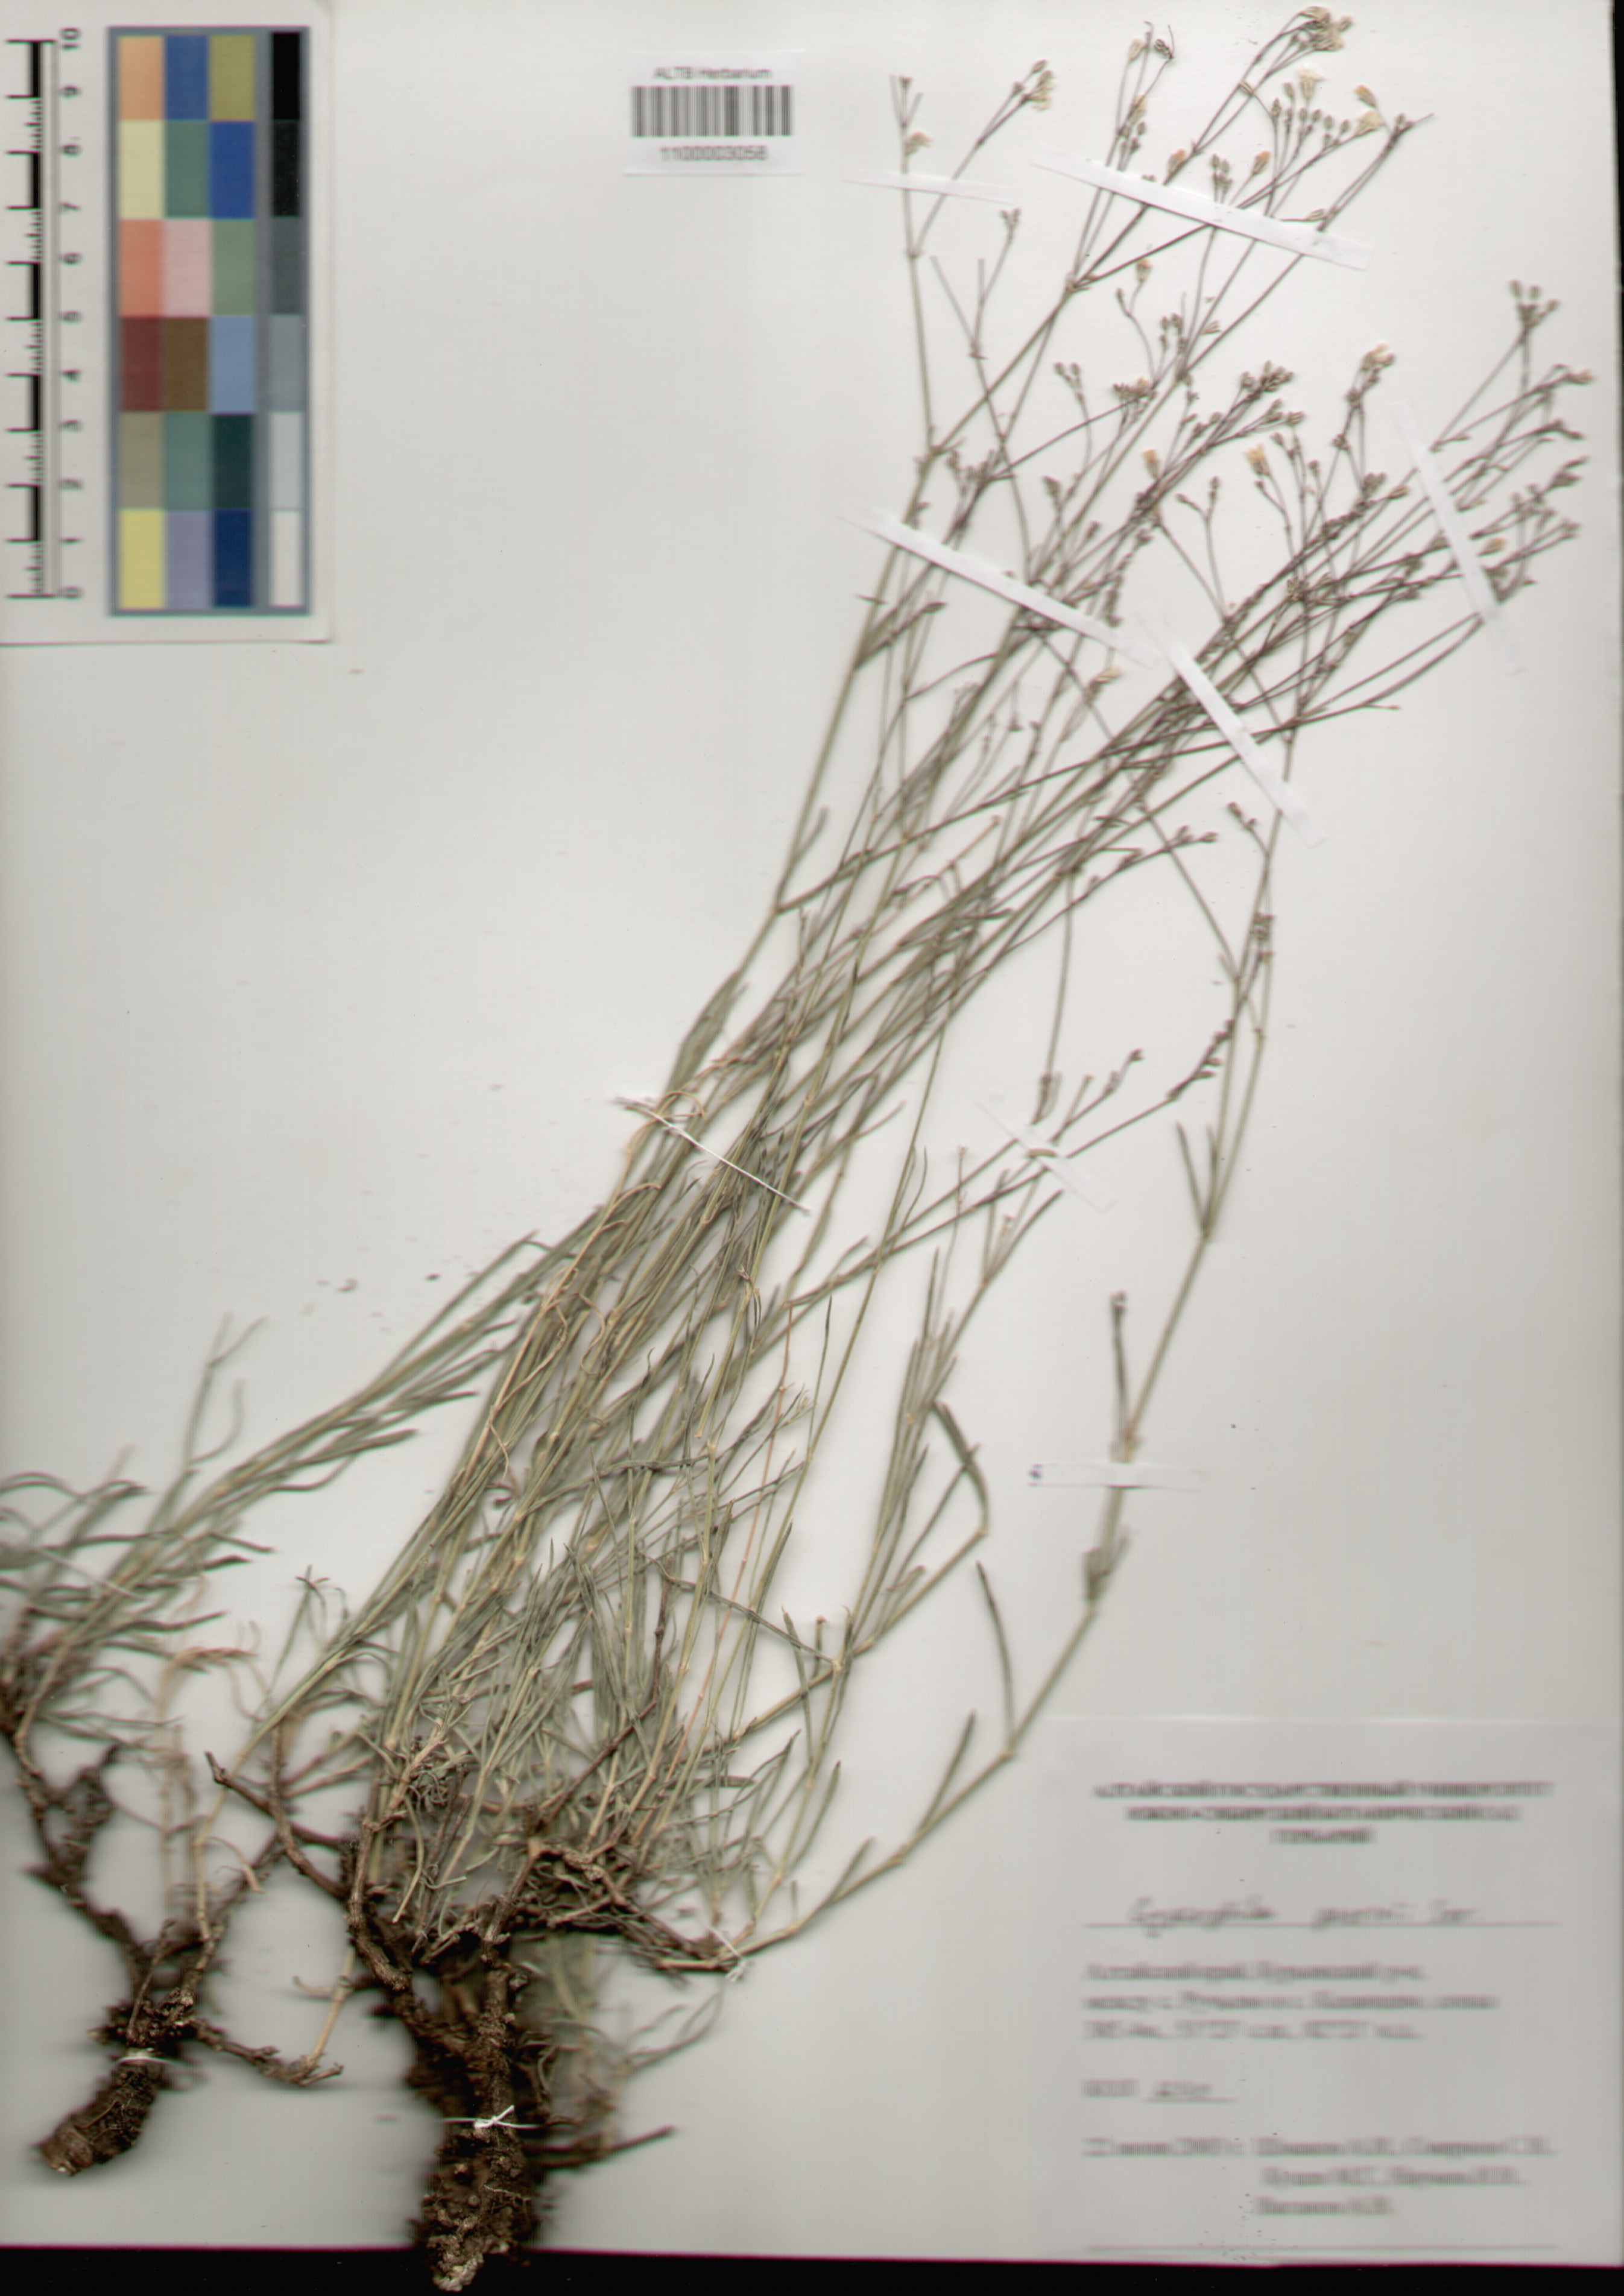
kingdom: Plantae
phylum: Tracheophyta
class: Magnoliopsida
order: Caryophyllales
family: Caryophyllaceae
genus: Gypsophila
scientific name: Gypsophila patrinii
